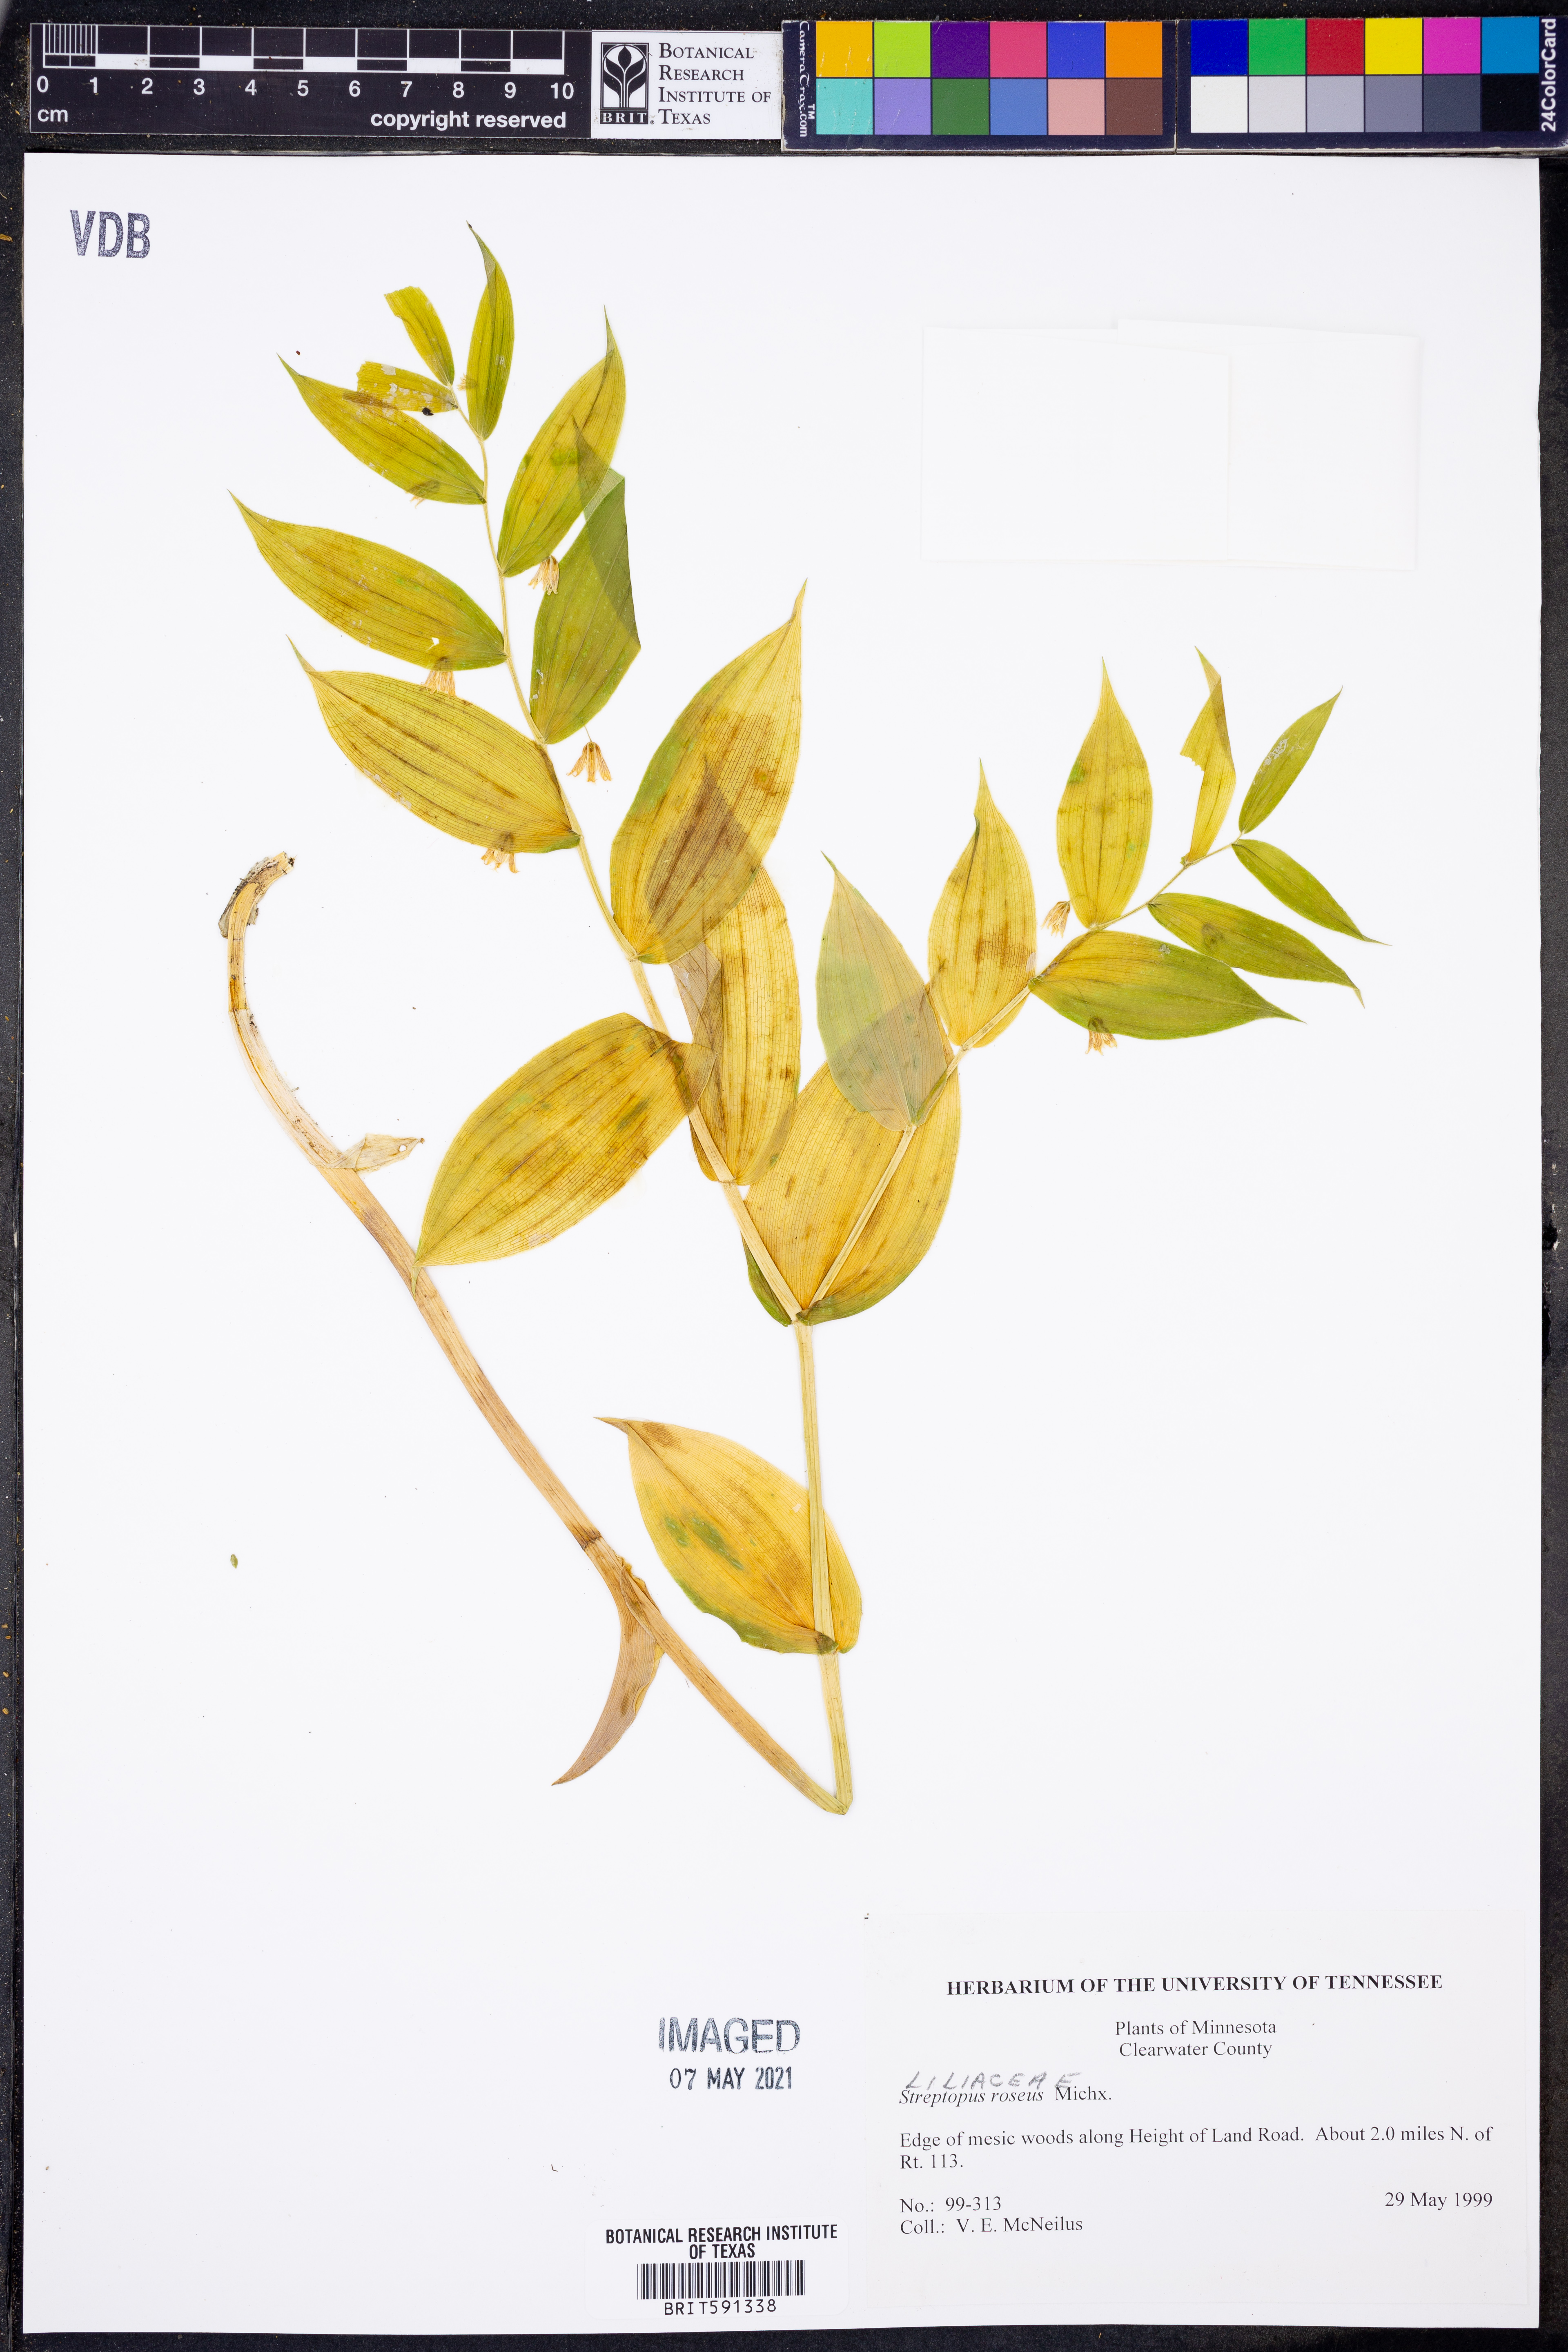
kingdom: Plantae
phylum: Tracheophyta
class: Liliopsida
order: Liliales
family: Liliaceae
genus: Streptopus
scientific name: Streptopus lanceolatus
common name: Rose mandarin
